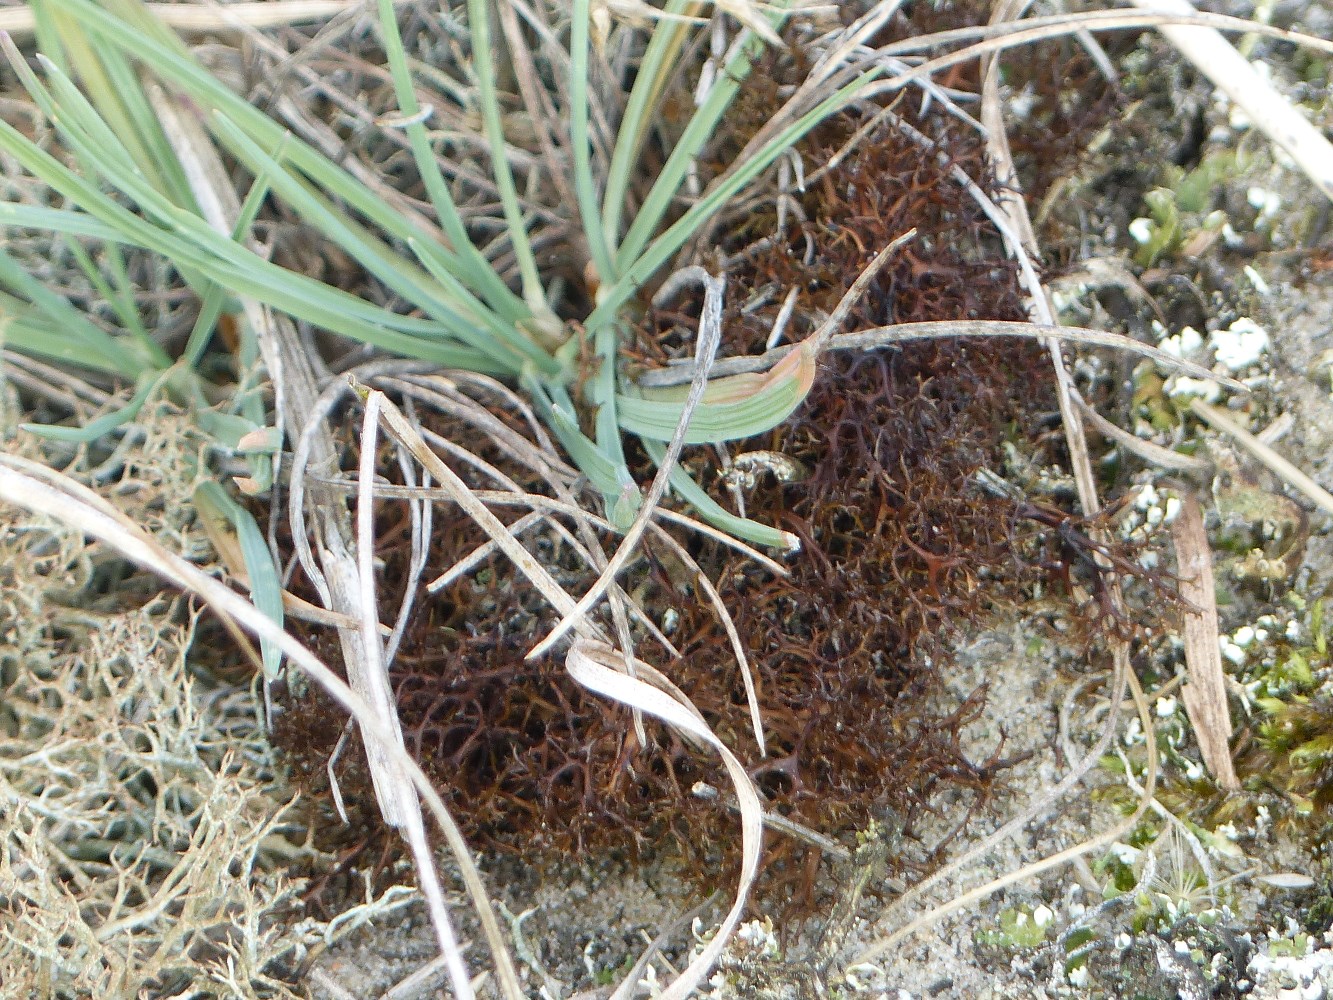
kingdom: Fungi
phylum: Ascomycota
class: Lecanoromycetes
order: Lecanorales
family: Parmeliaceae
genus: Cetraria
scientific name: Cetraria muricata
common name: tue-tjørnelav
